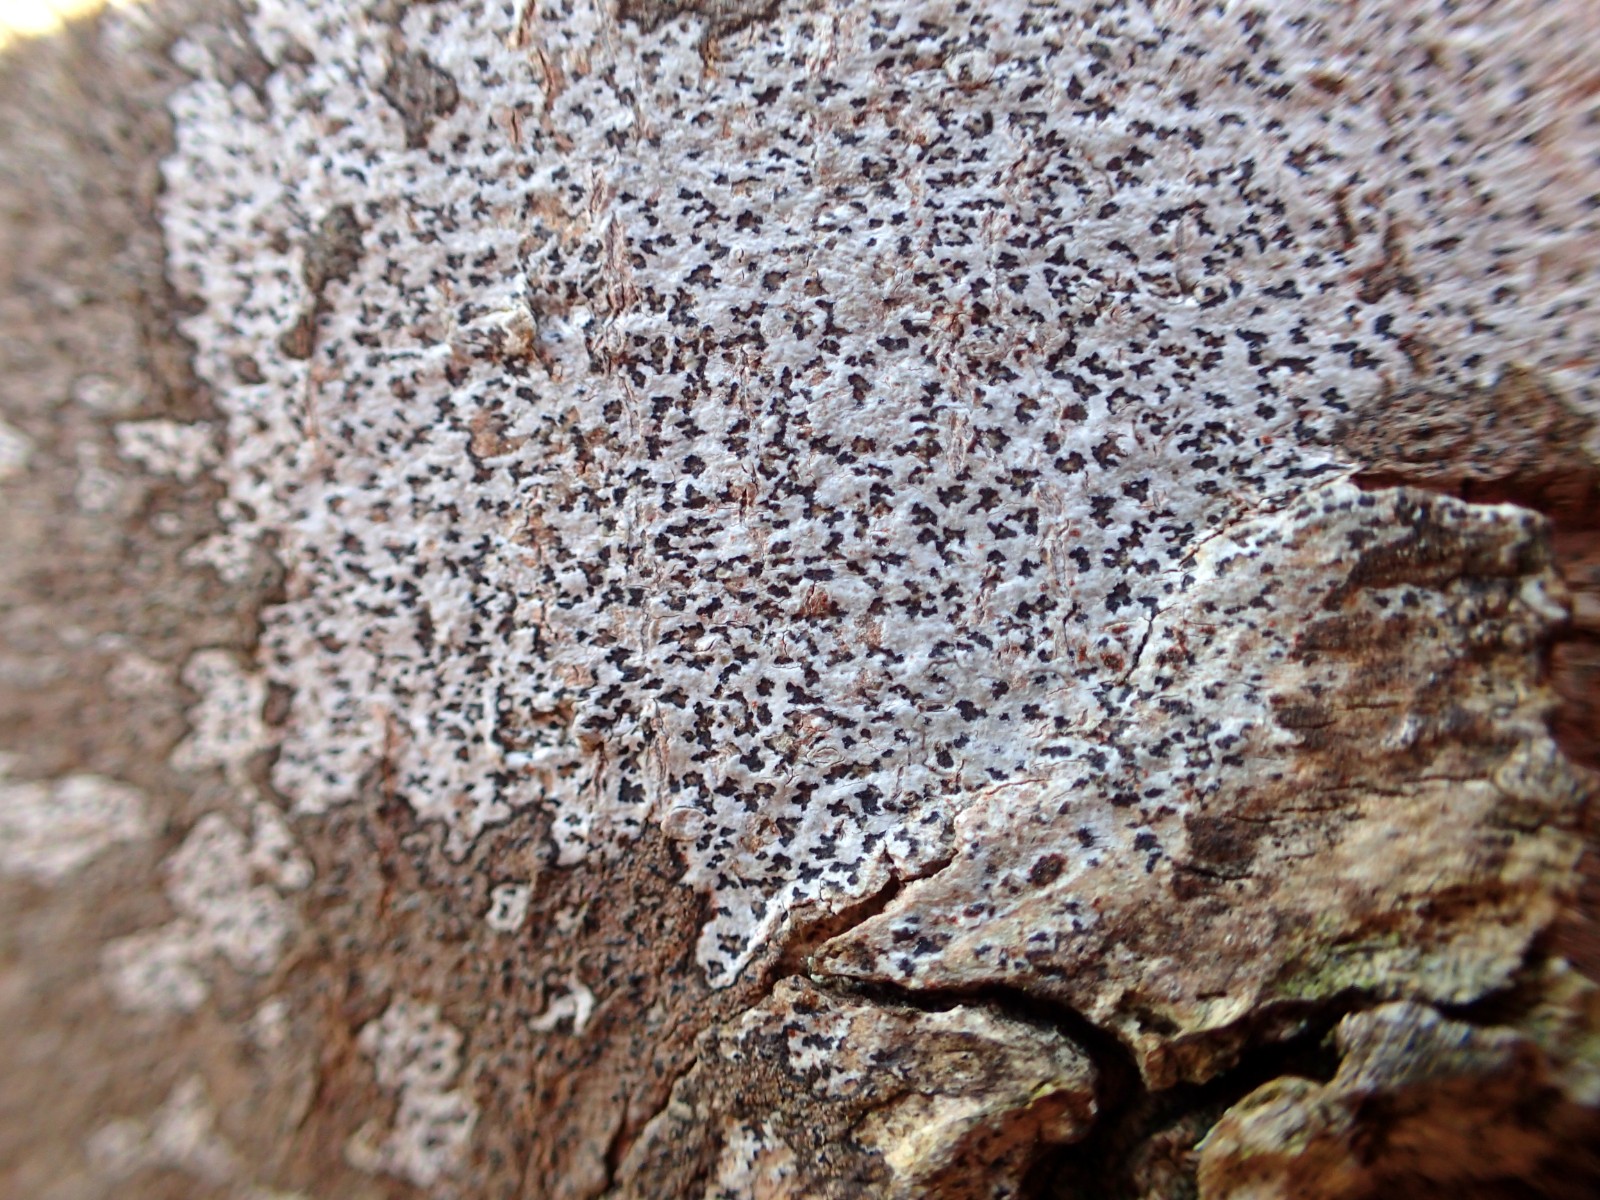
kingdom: Fungi
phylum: Ascomycota
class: Arthoniomycetes
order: Arthoniales
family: Arthoniaceae
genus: Arthonia
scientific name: Arthonia radiata
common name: stjerne-pletlav
